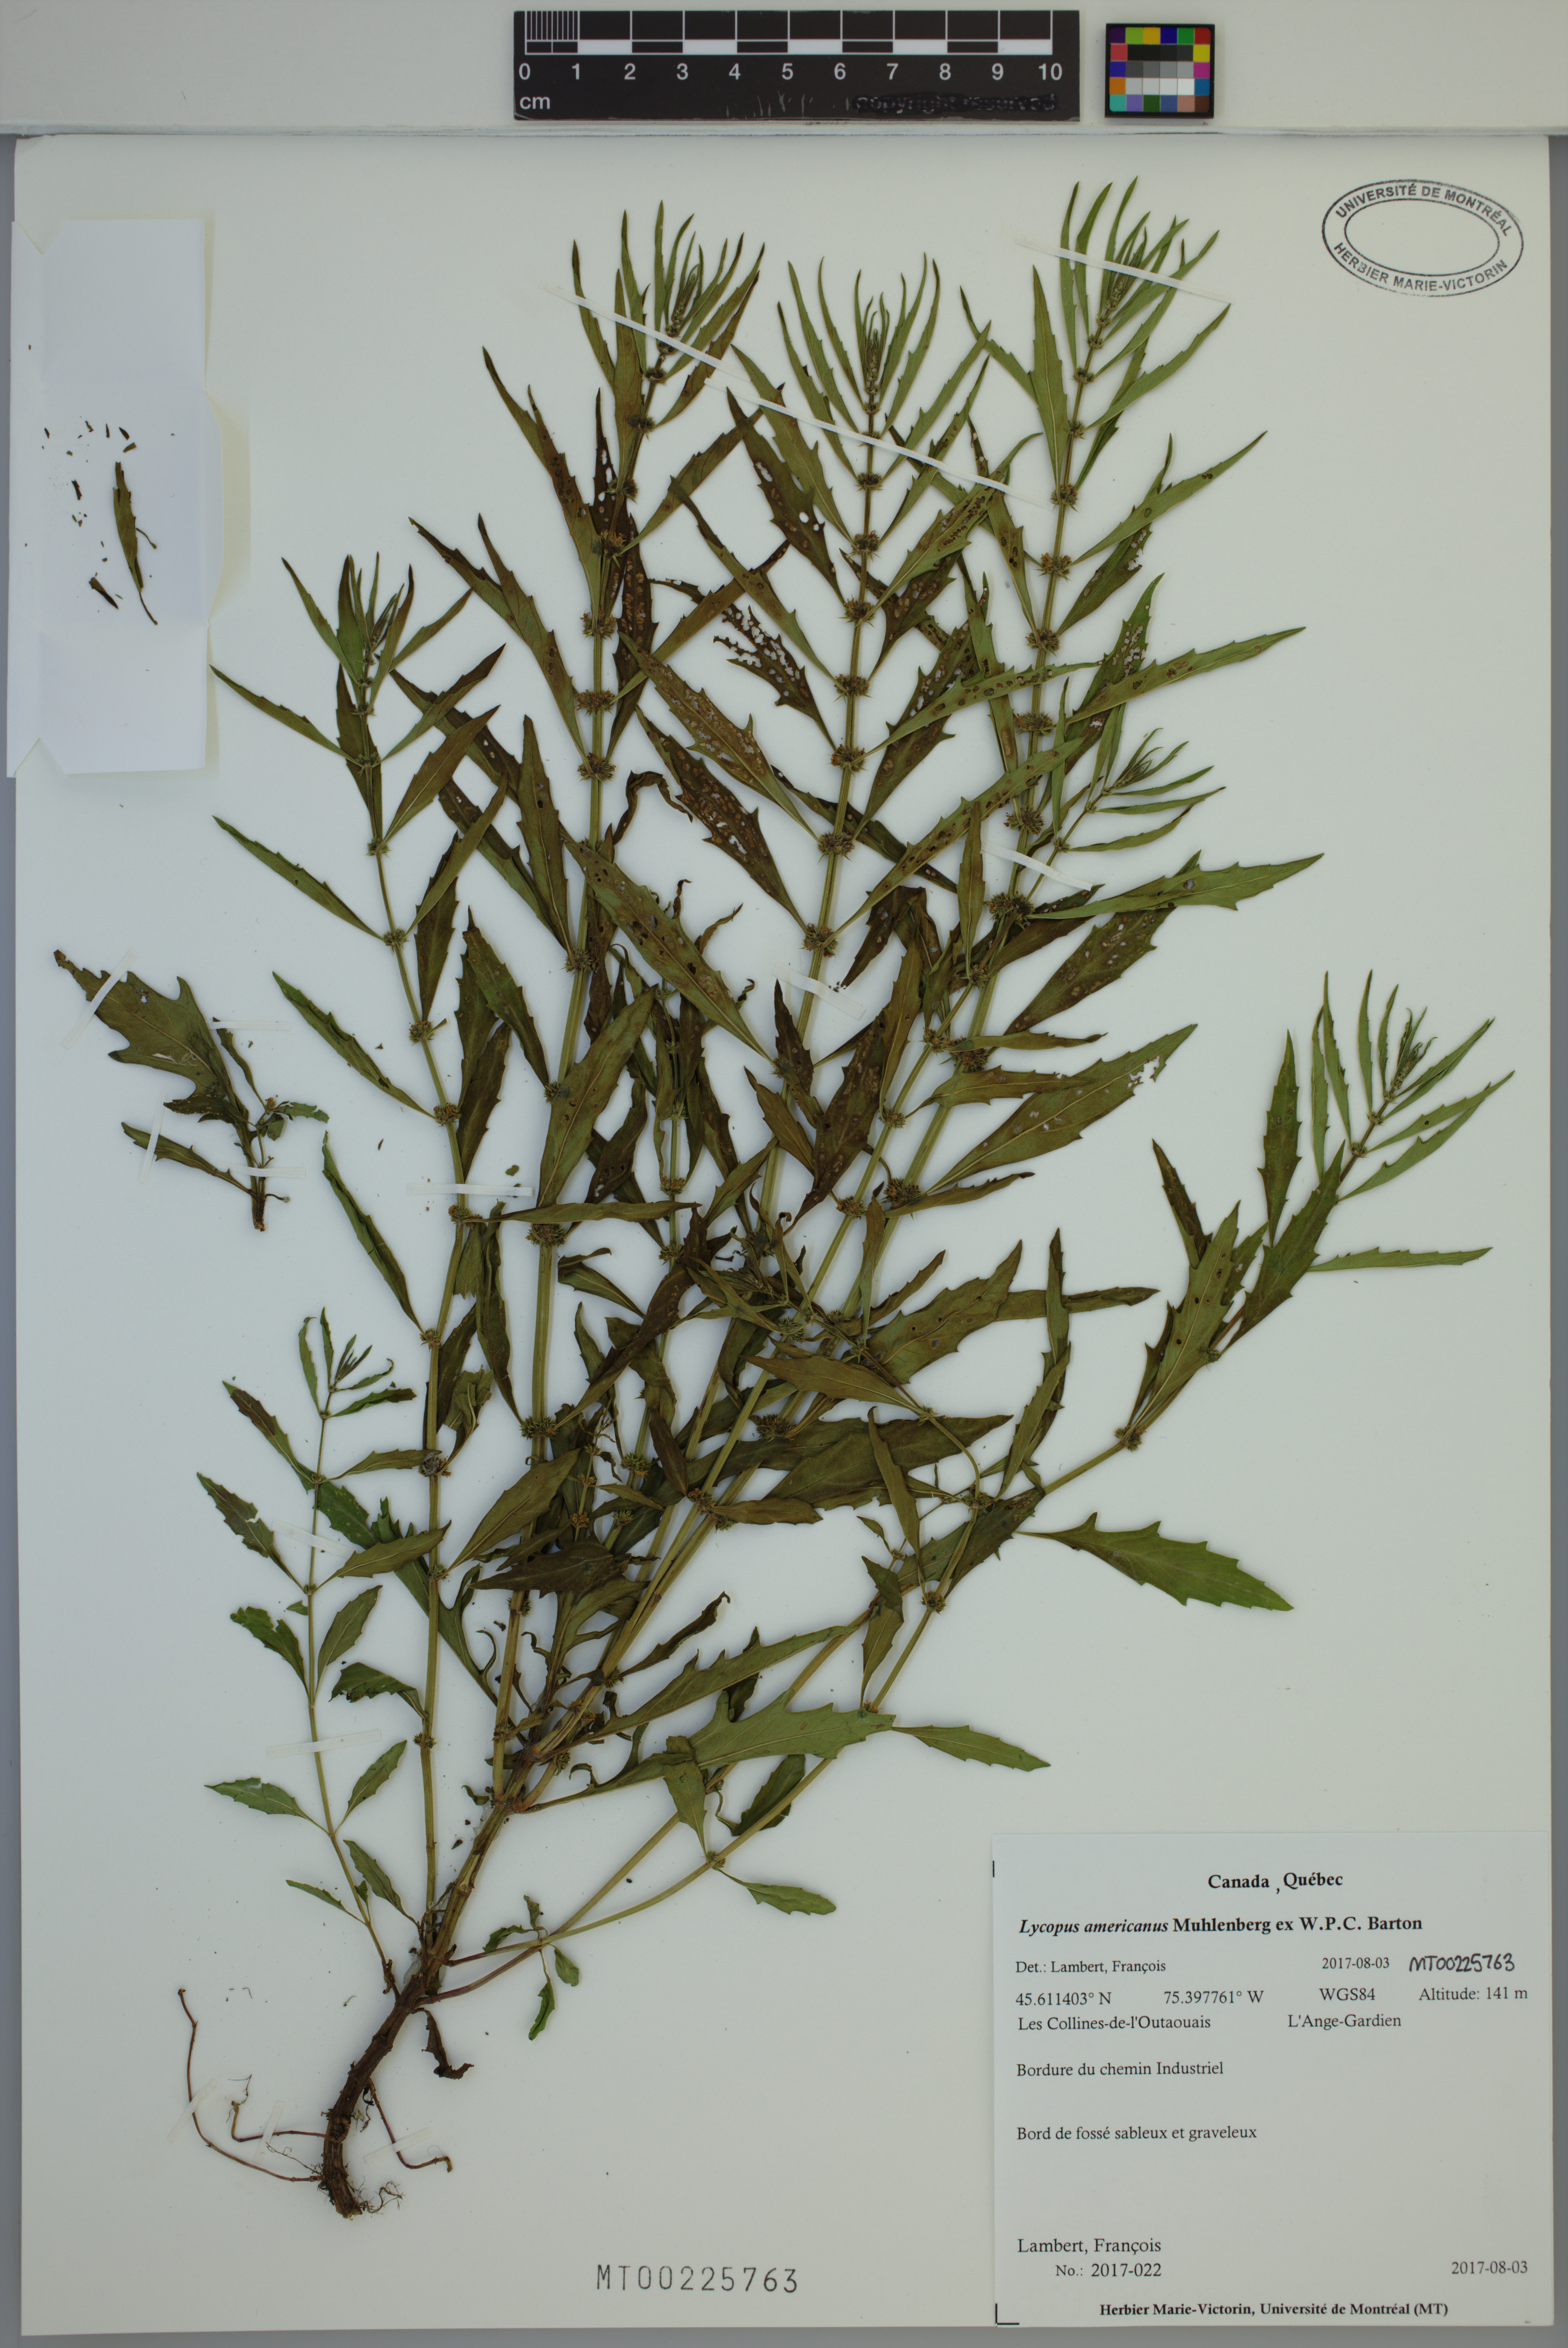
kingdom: Plantae
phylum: Tracheophyta
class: Magnoliopsida
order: Lamiales
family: Lamiaceae
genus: Lycopus
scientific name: Lycopus americanus
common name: American bugleweed
